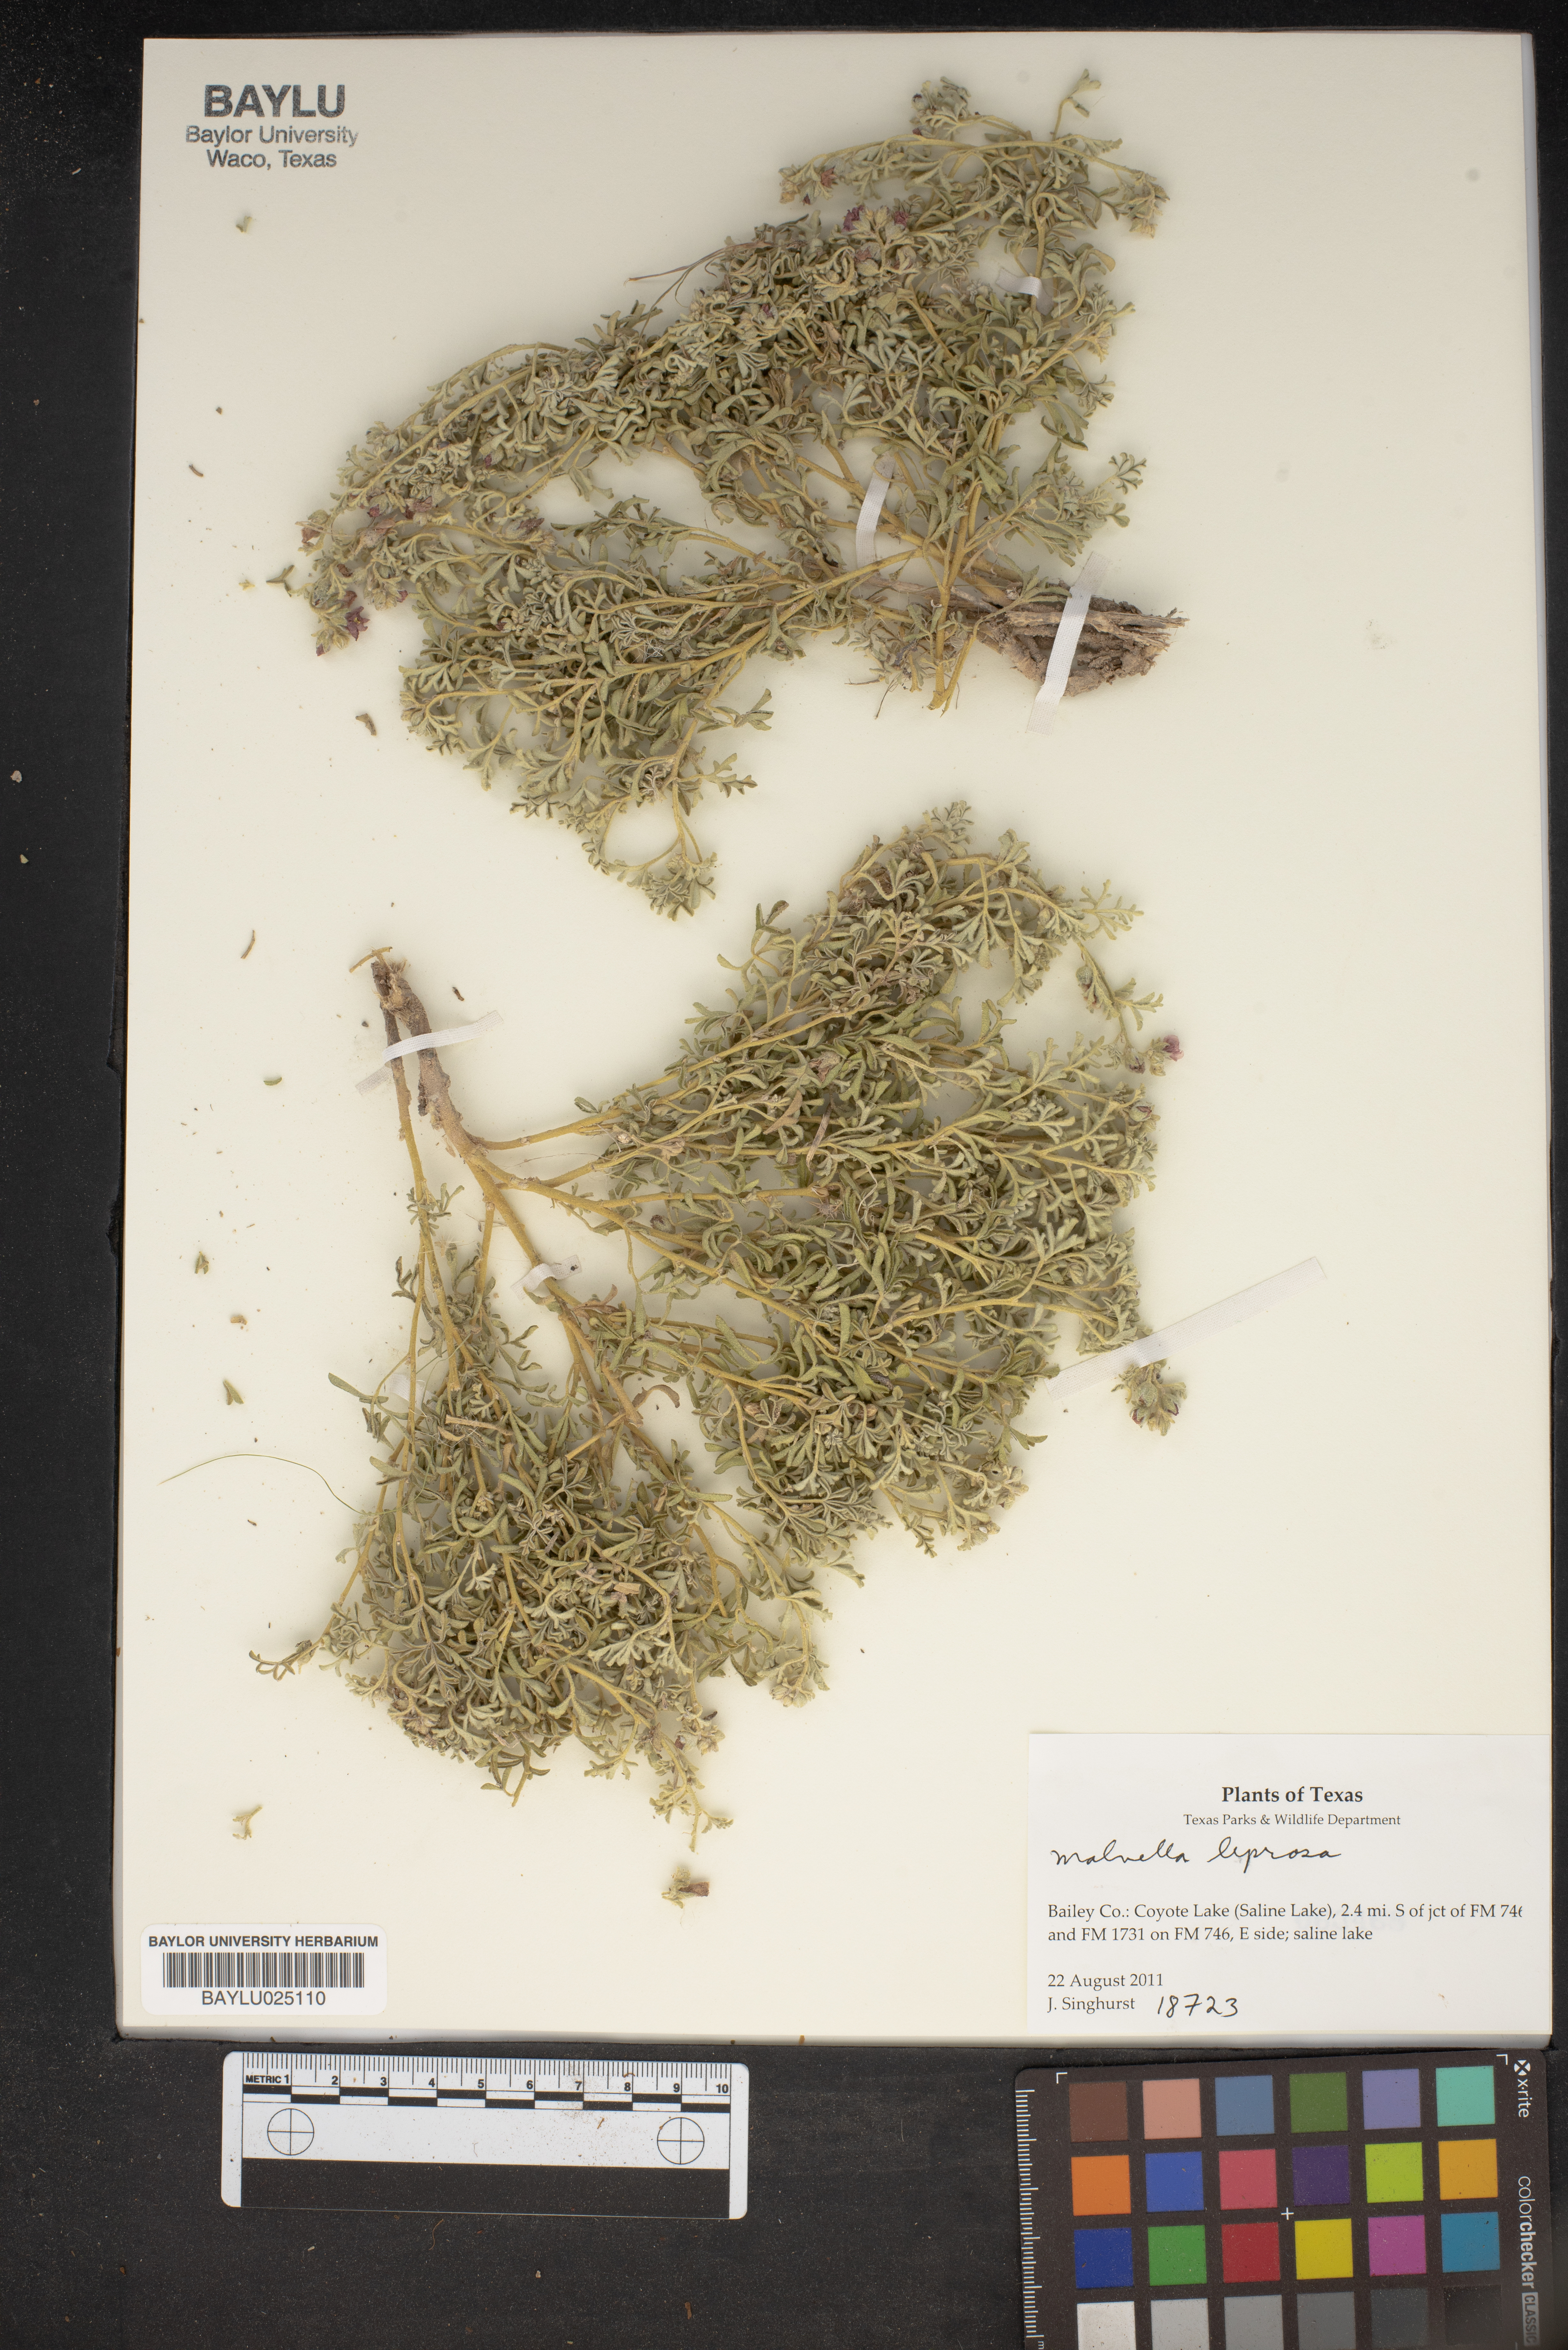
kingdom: Plantae
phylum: Tracheophyta
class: Magnoliopsida
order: Malvales
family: Malvaceae
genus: Malvella
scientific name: Malvella leprosa
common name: Alkali-mallow
